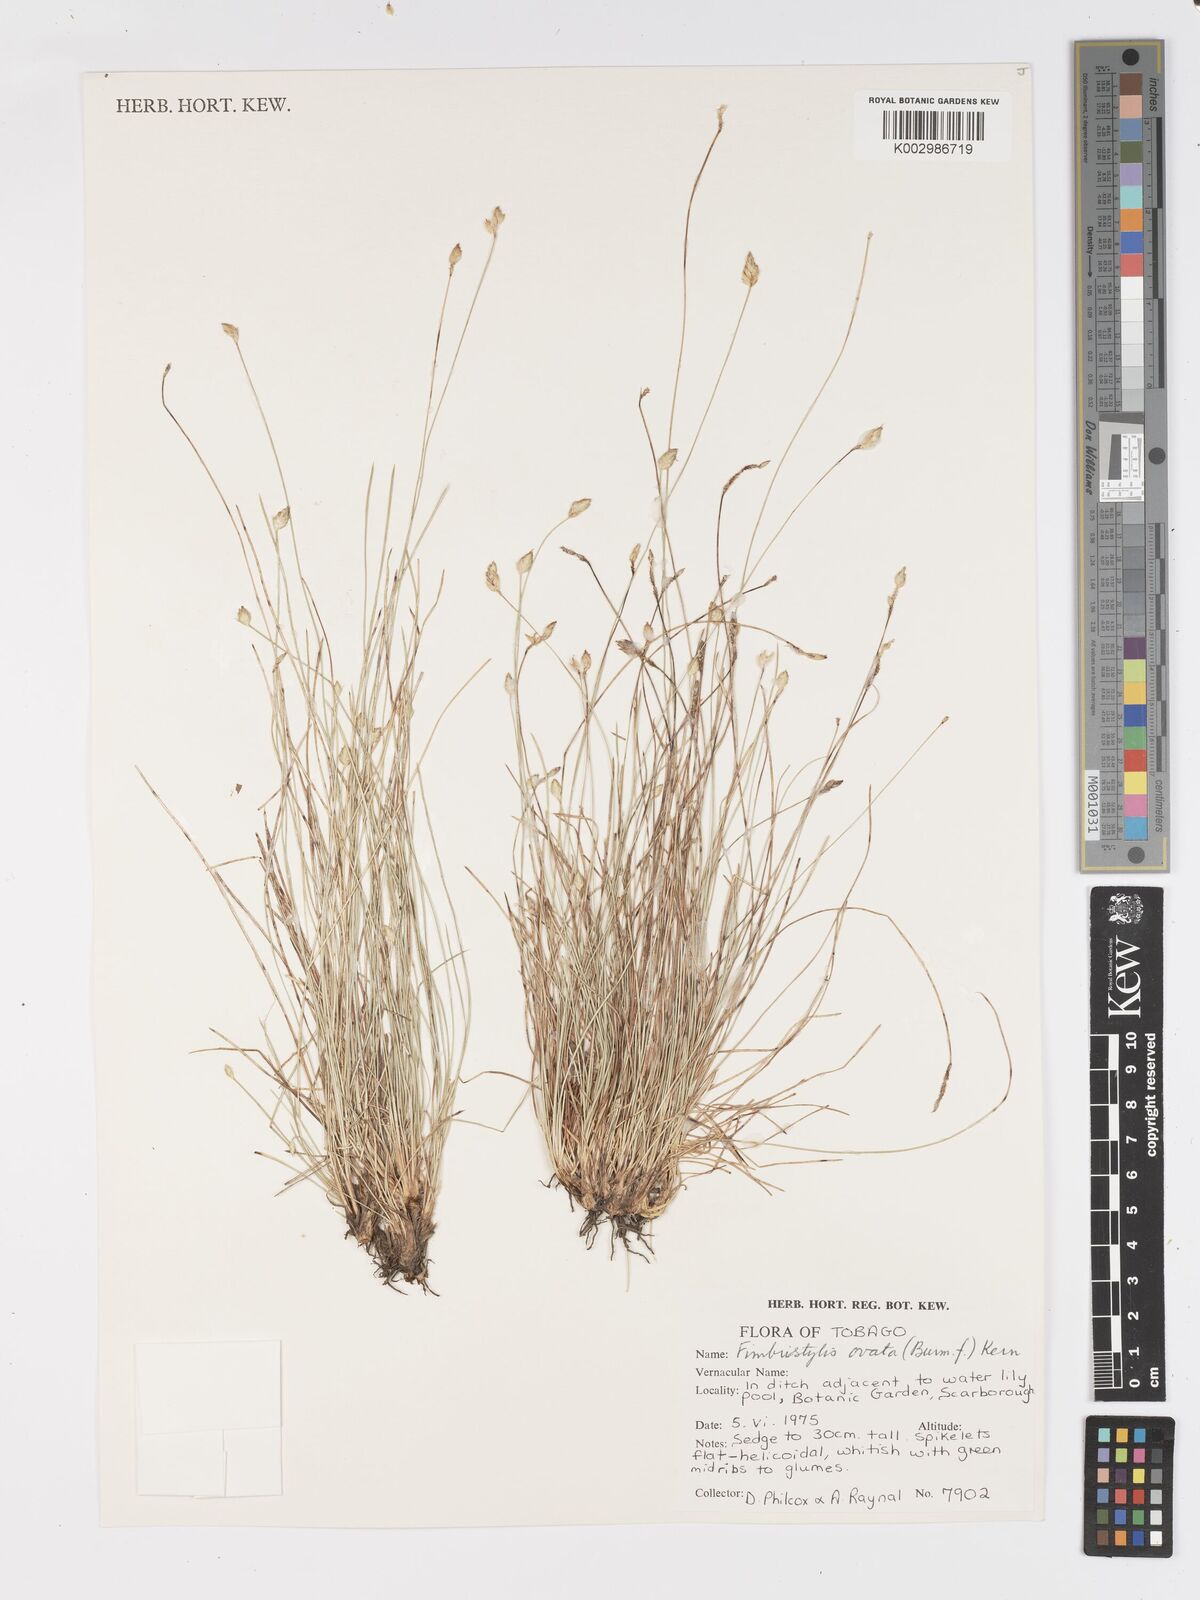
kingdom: Plantae
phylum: Tracheophyta
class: Liliopsida
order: Poales
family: Cyperaceae
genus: Fimbristylis
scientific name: Fimbristylis
